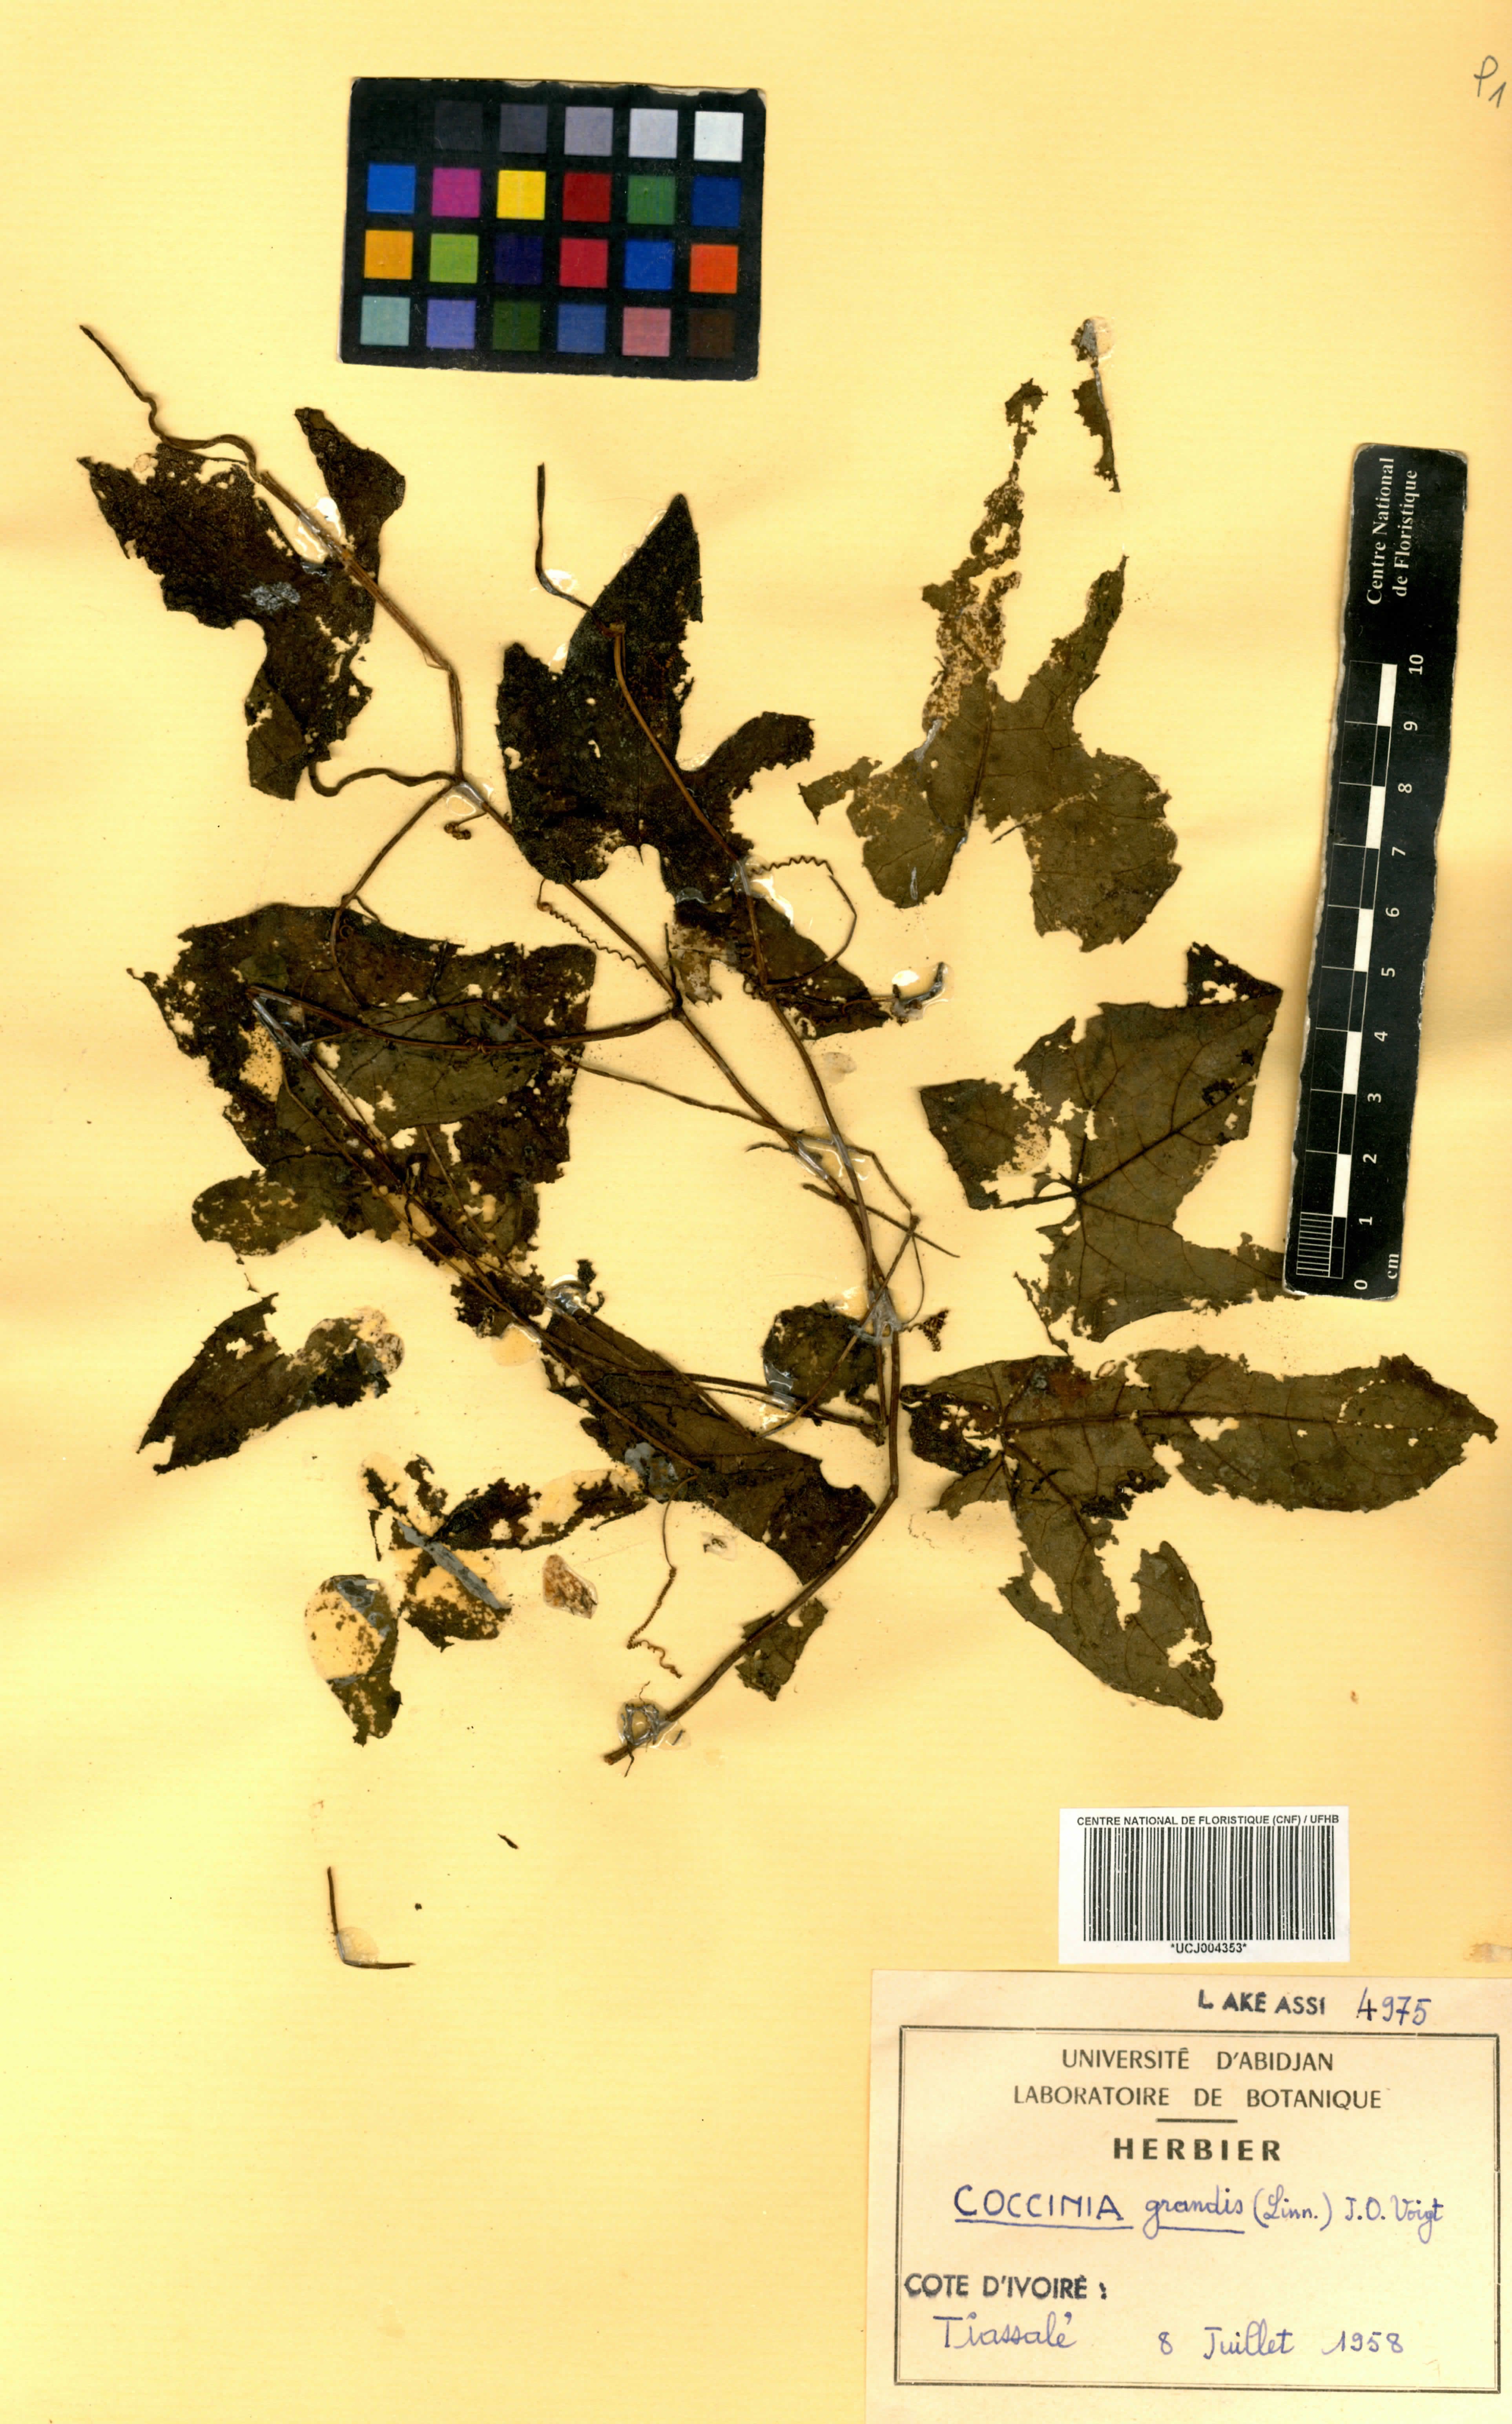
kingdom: Plantae
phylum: Tracheophyta
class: Magnoliopsida
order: Cucurbitales
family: Cucurbitaceae
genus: Coccinia
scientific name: Coccinia grandis
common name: Ivy gourd
